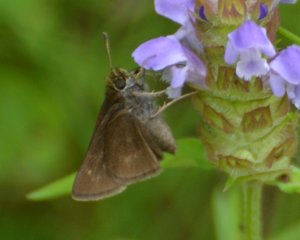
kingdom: Animalia
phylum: Arthropoda
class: Insecta
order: Lepidoptera
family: Hesperiidae
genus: Euphyes
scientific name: Euphyes vestris
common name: Dun Skipper
